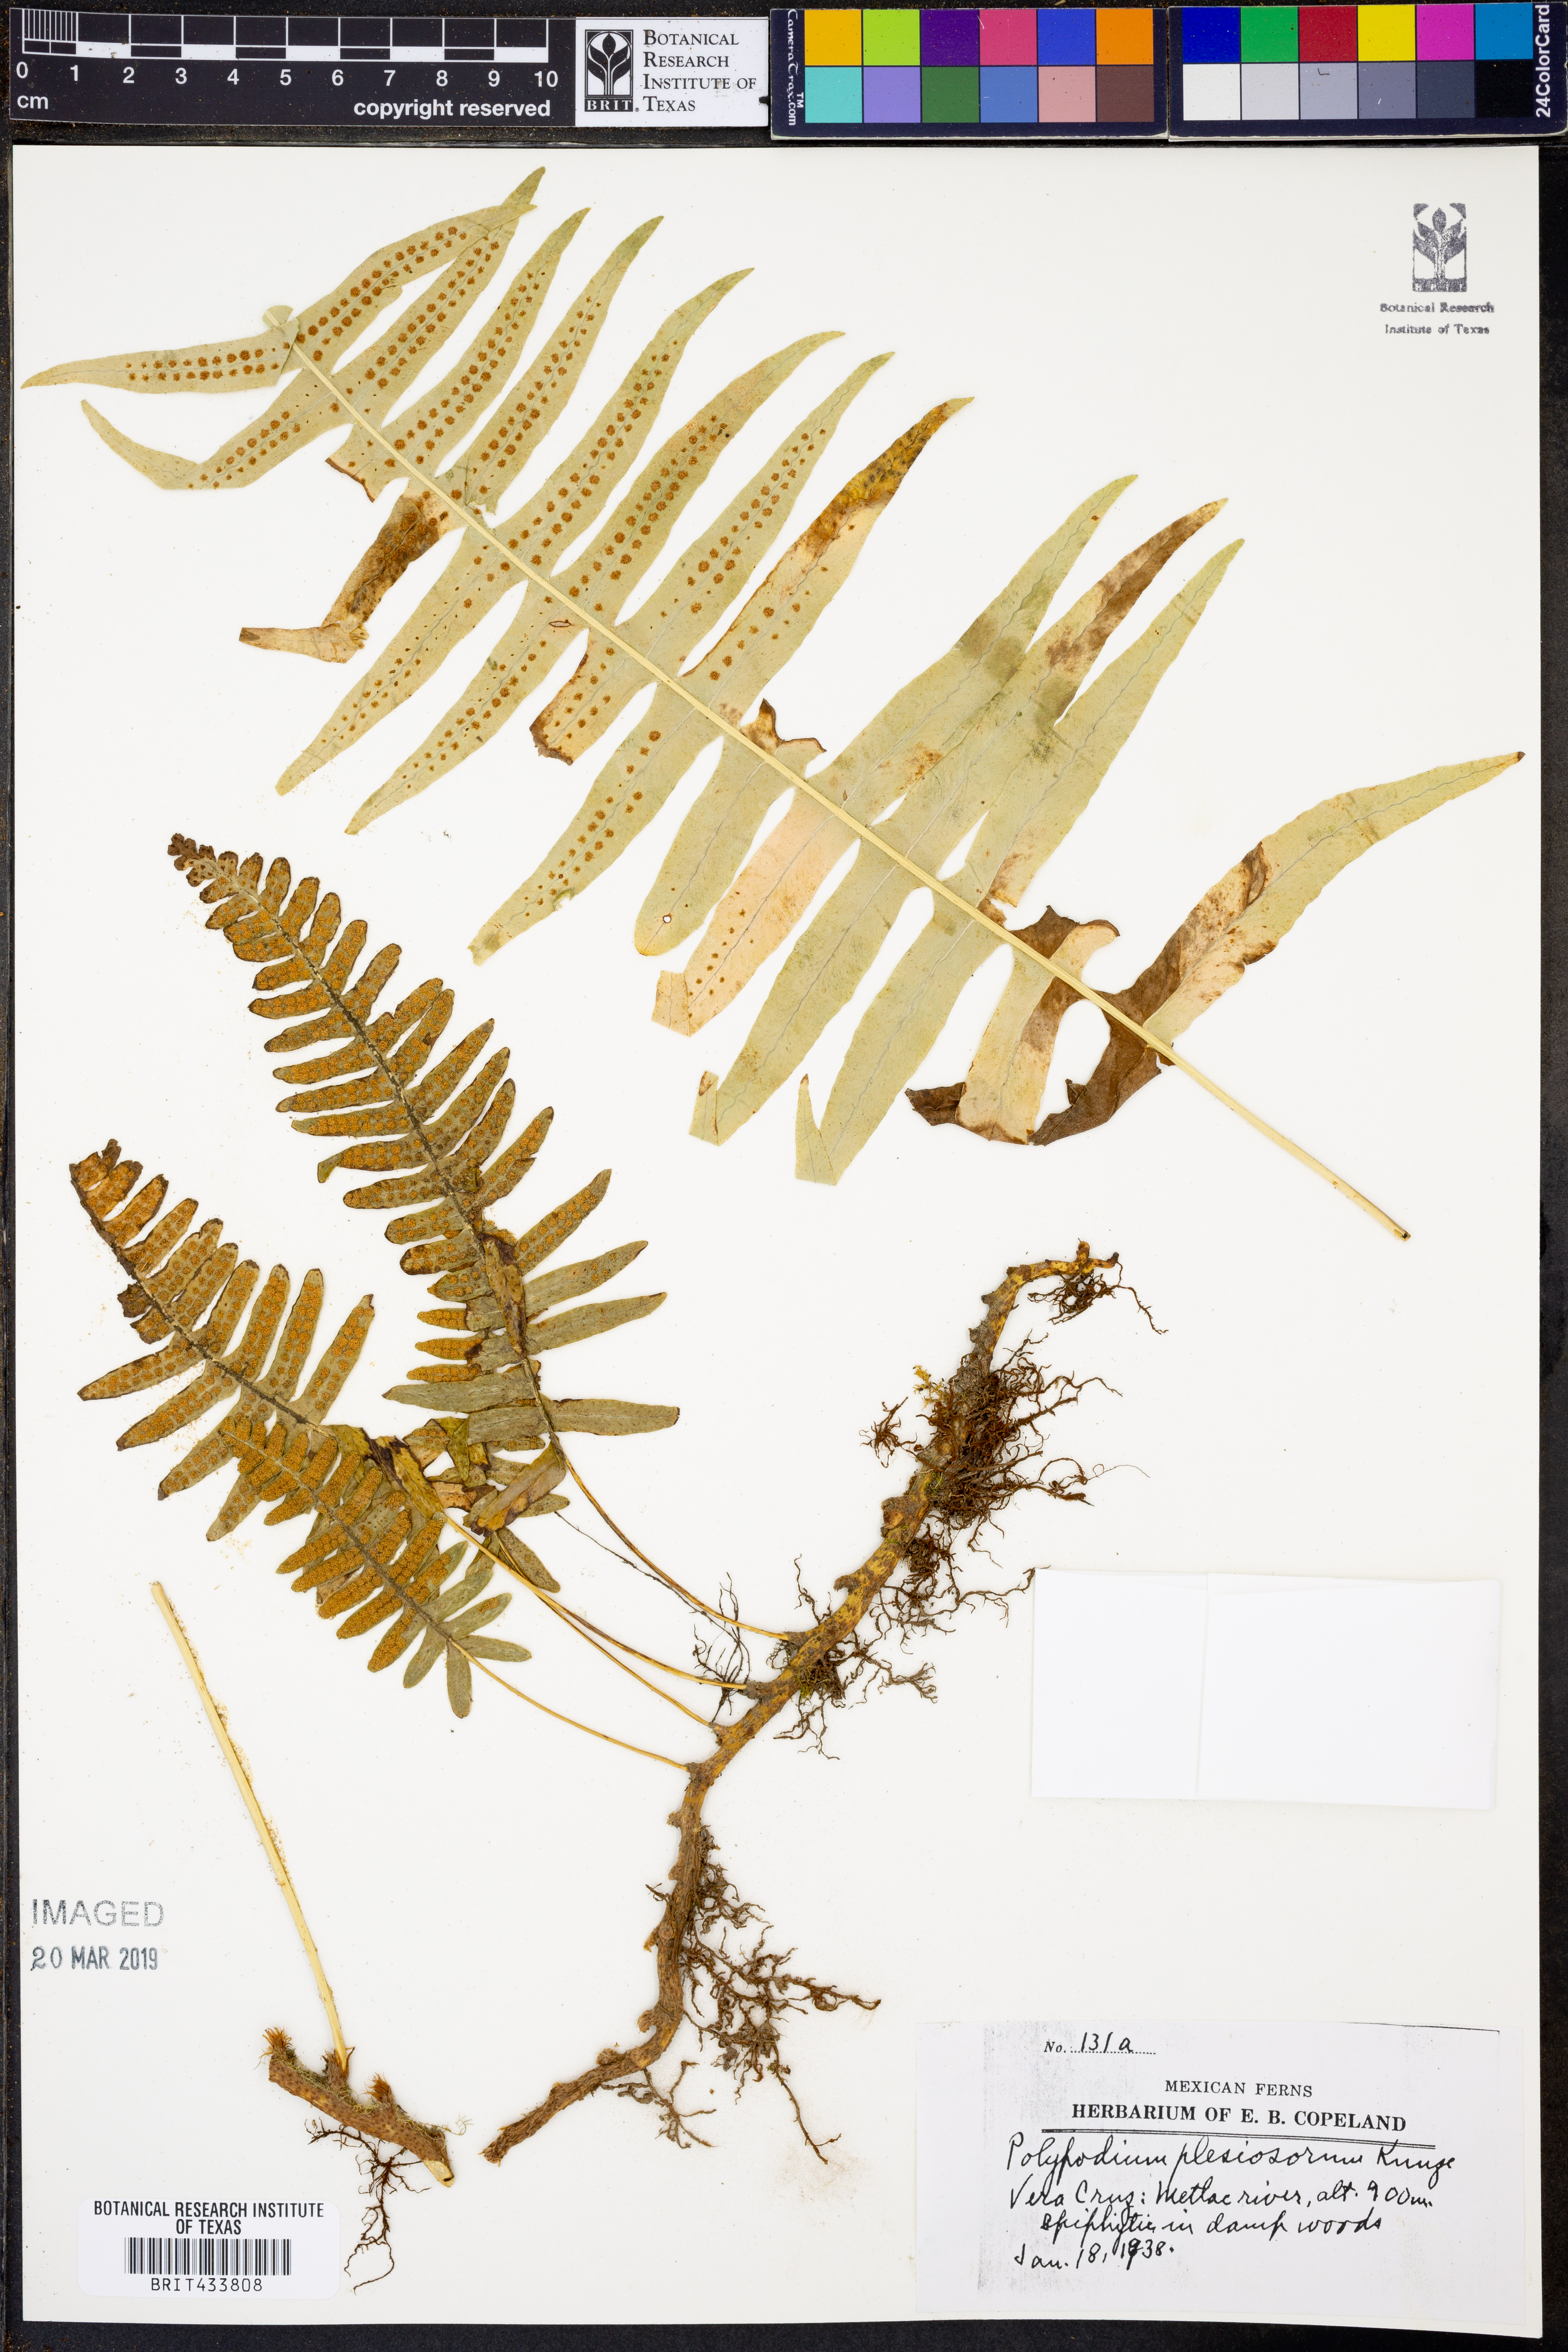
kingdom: Plantae
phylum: Tracheophyta
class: Polypodiopsida
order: Polypodiales
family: Polypodiaceae
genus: Polypodium
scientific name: Polypodium plesiosorum
